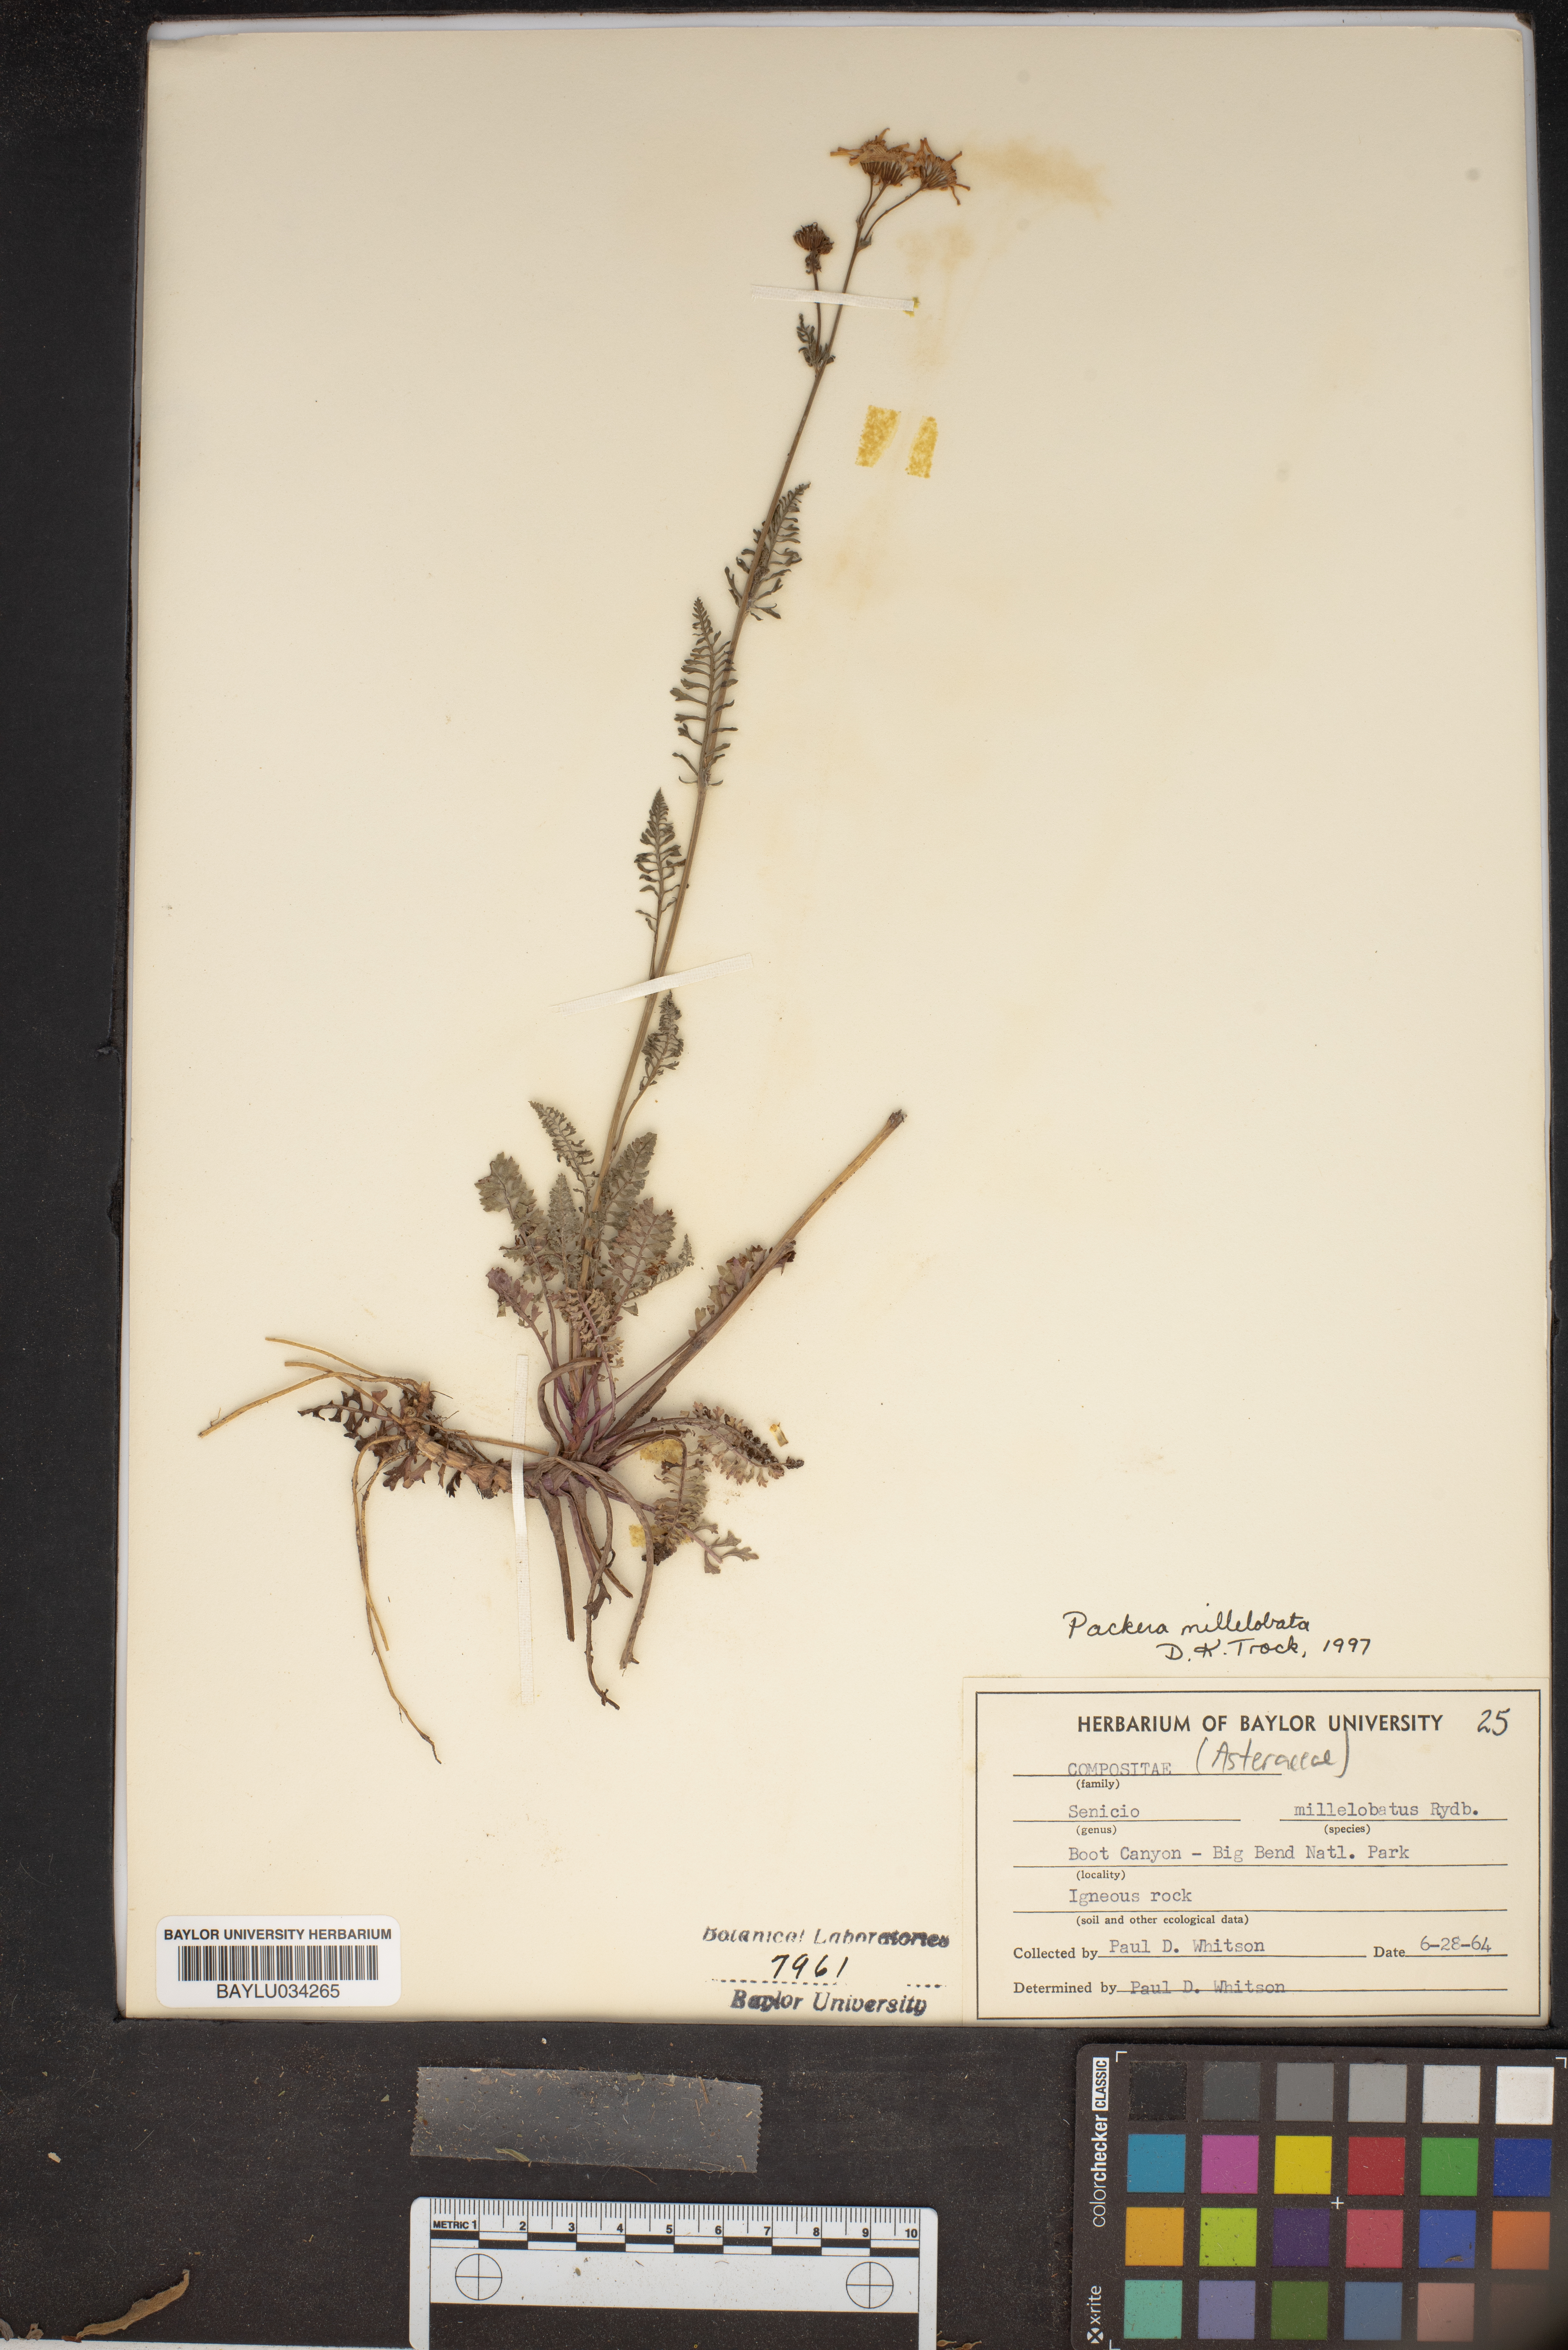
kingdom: Plantae
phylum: Tracheophyta
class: Magnoliopsida
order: Asterales
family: Asteraceae
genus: Packera
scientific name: Packera millelobata
